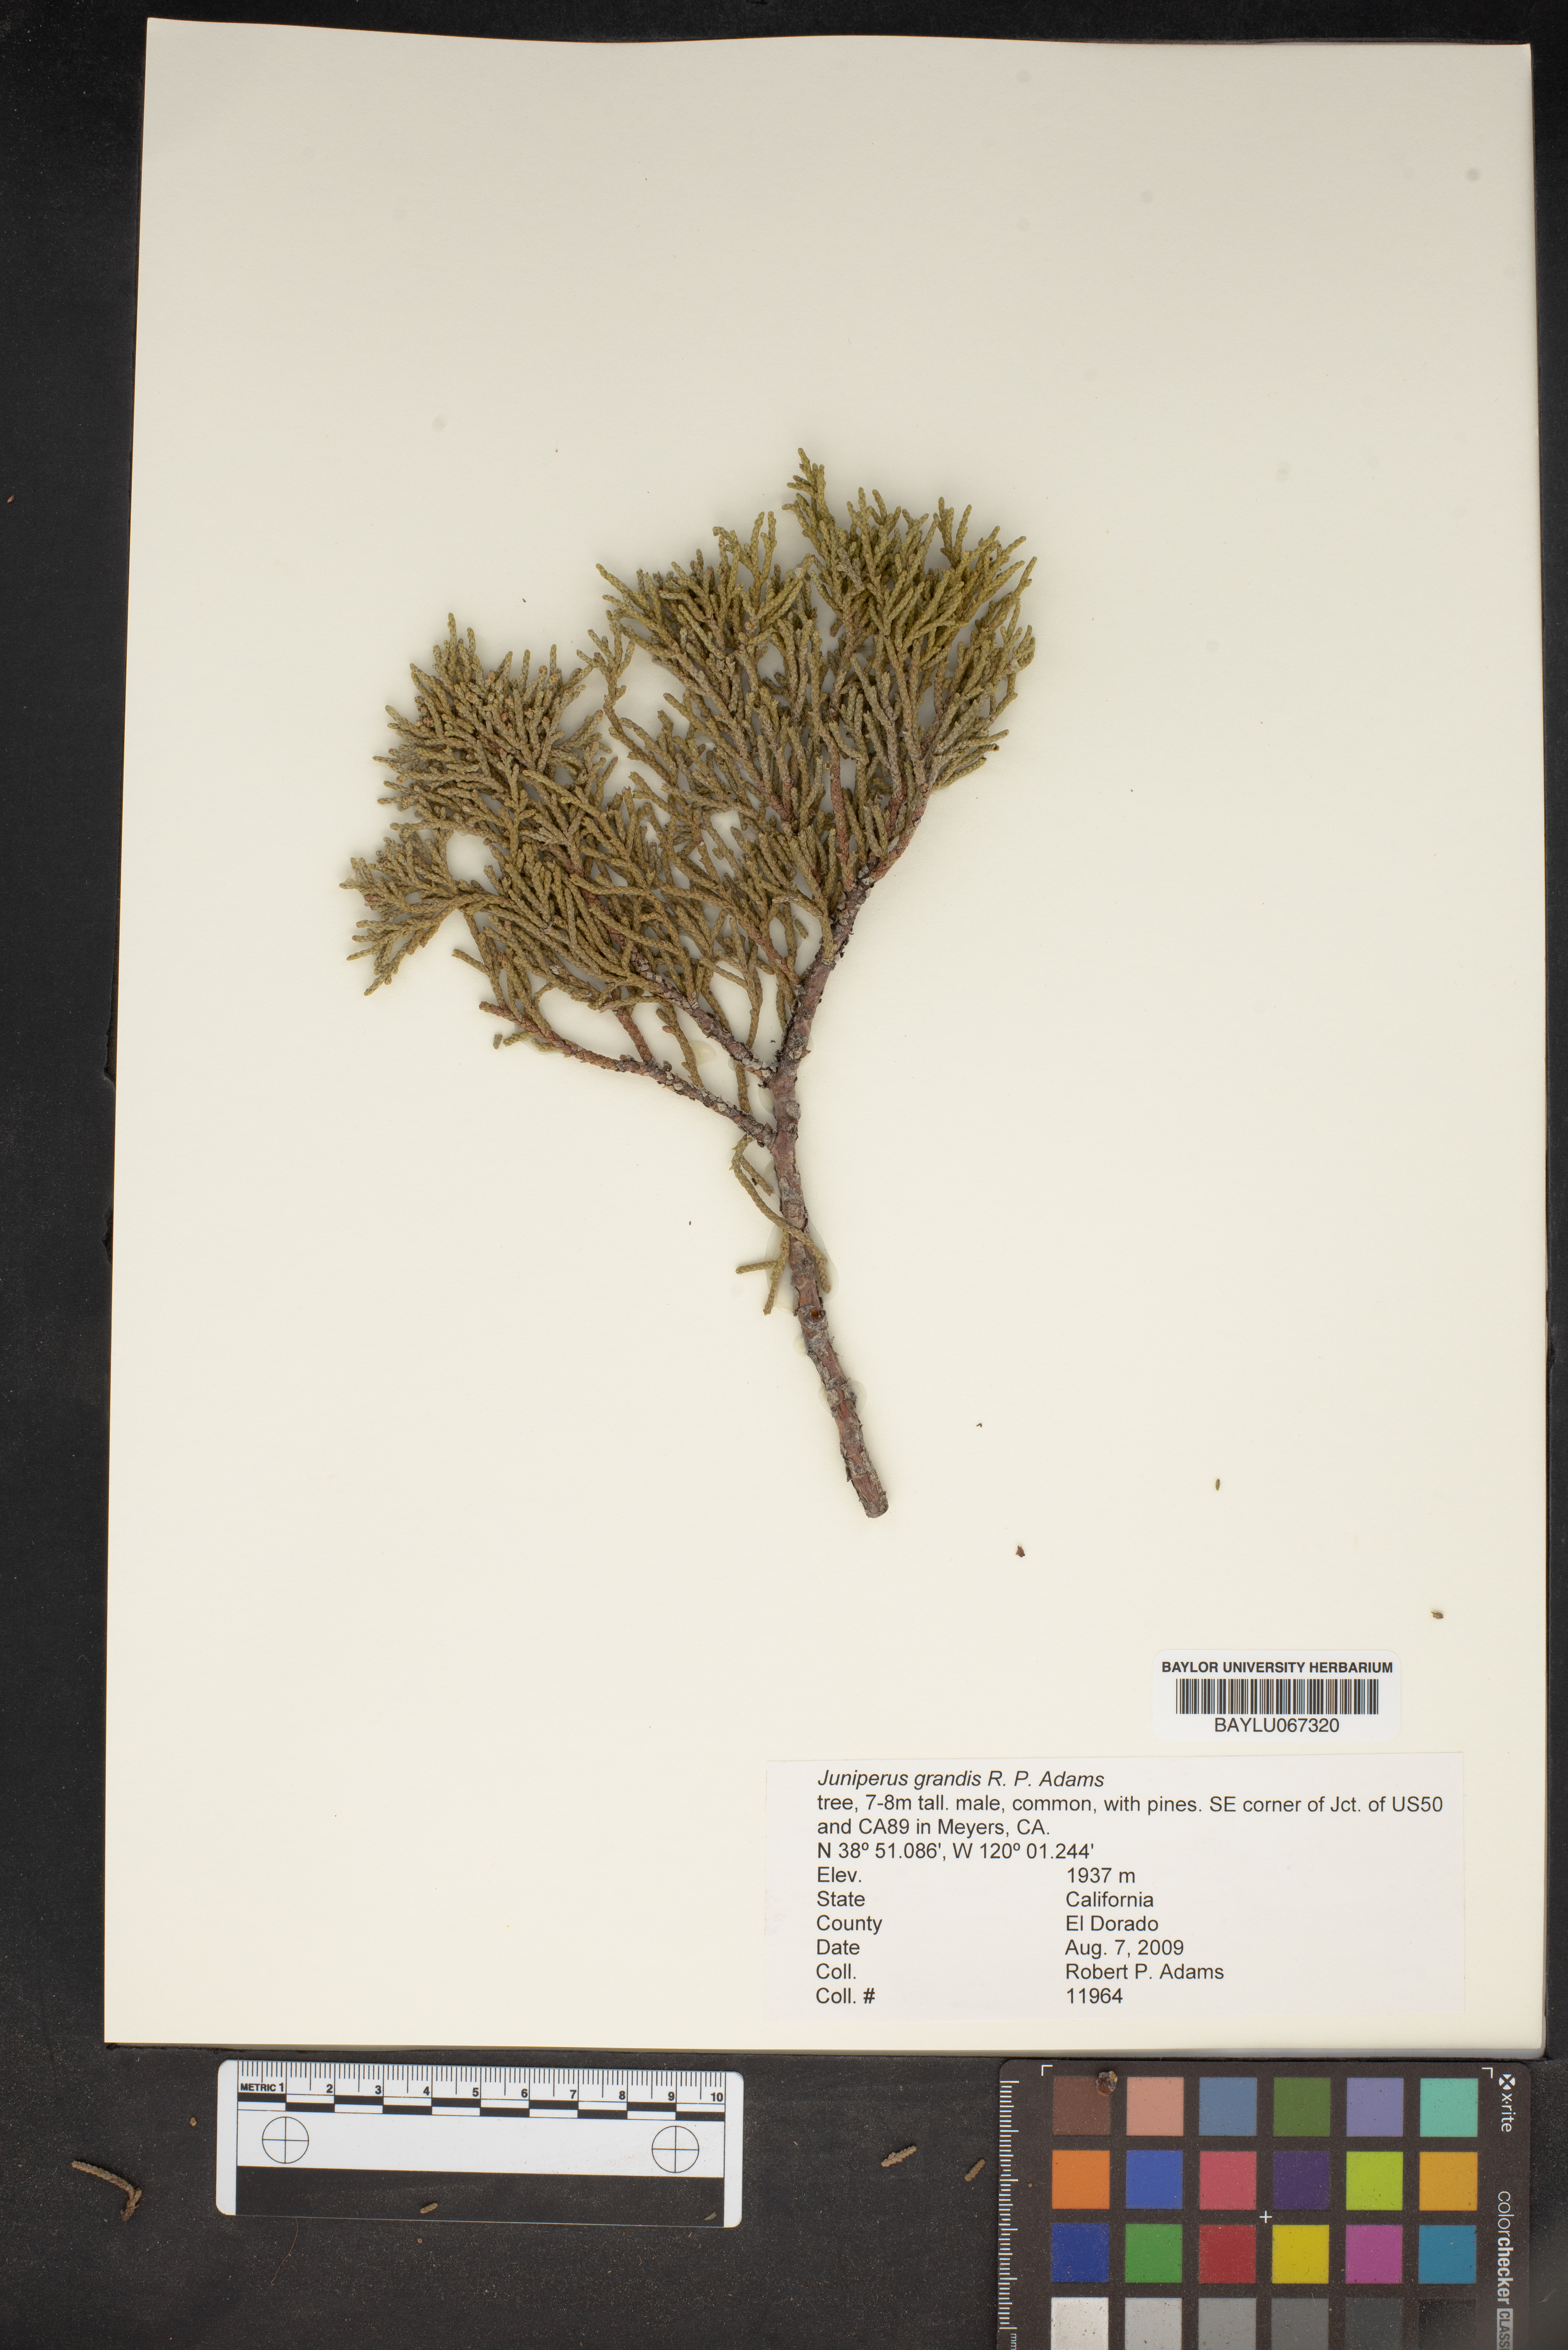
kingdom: Plantae
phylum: Tracheophyta
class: Pinopsida
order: Pinales
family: Cupressaceae
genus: Juniperus
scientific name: Juniperus occidentalis
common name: Western juniper
